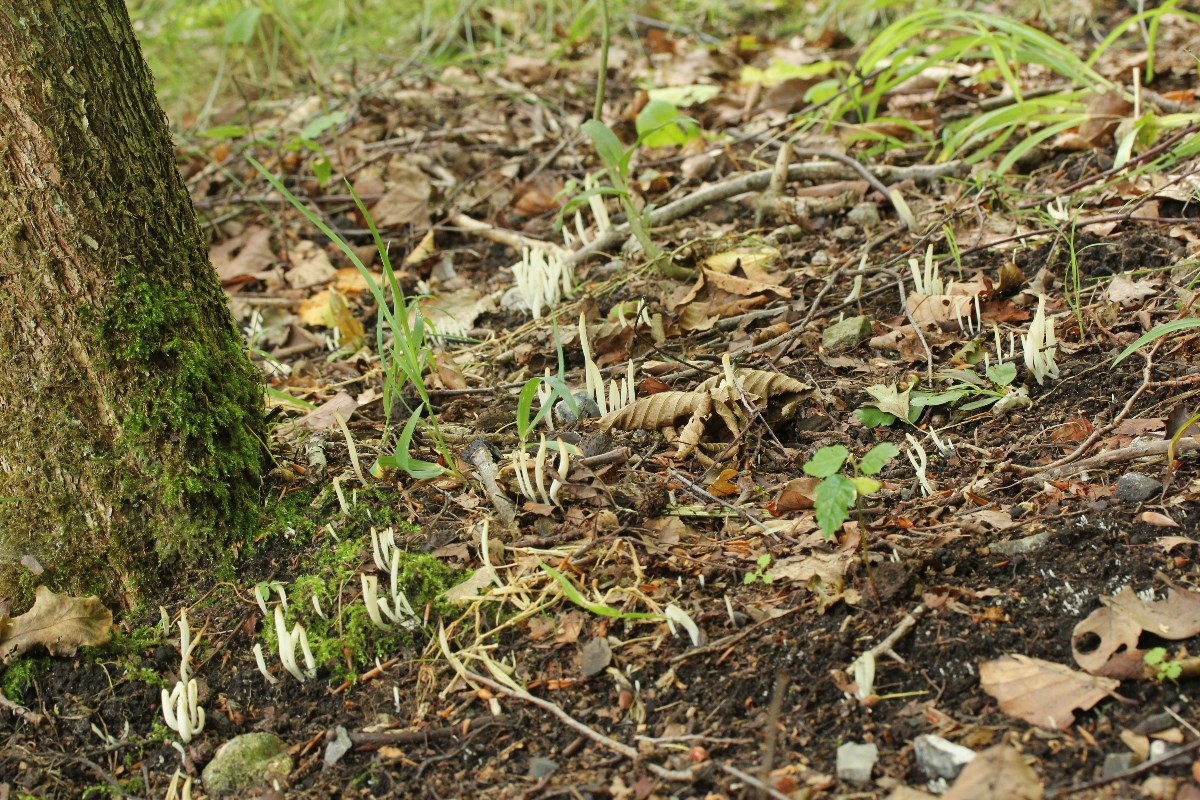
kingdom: Fungi
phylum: Basidiomycota
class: Agaricomycetes
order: Agaricales
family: Clavariaceae
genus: Clavaria
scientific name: Clavaria falcata
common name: hvid køllesvamp
